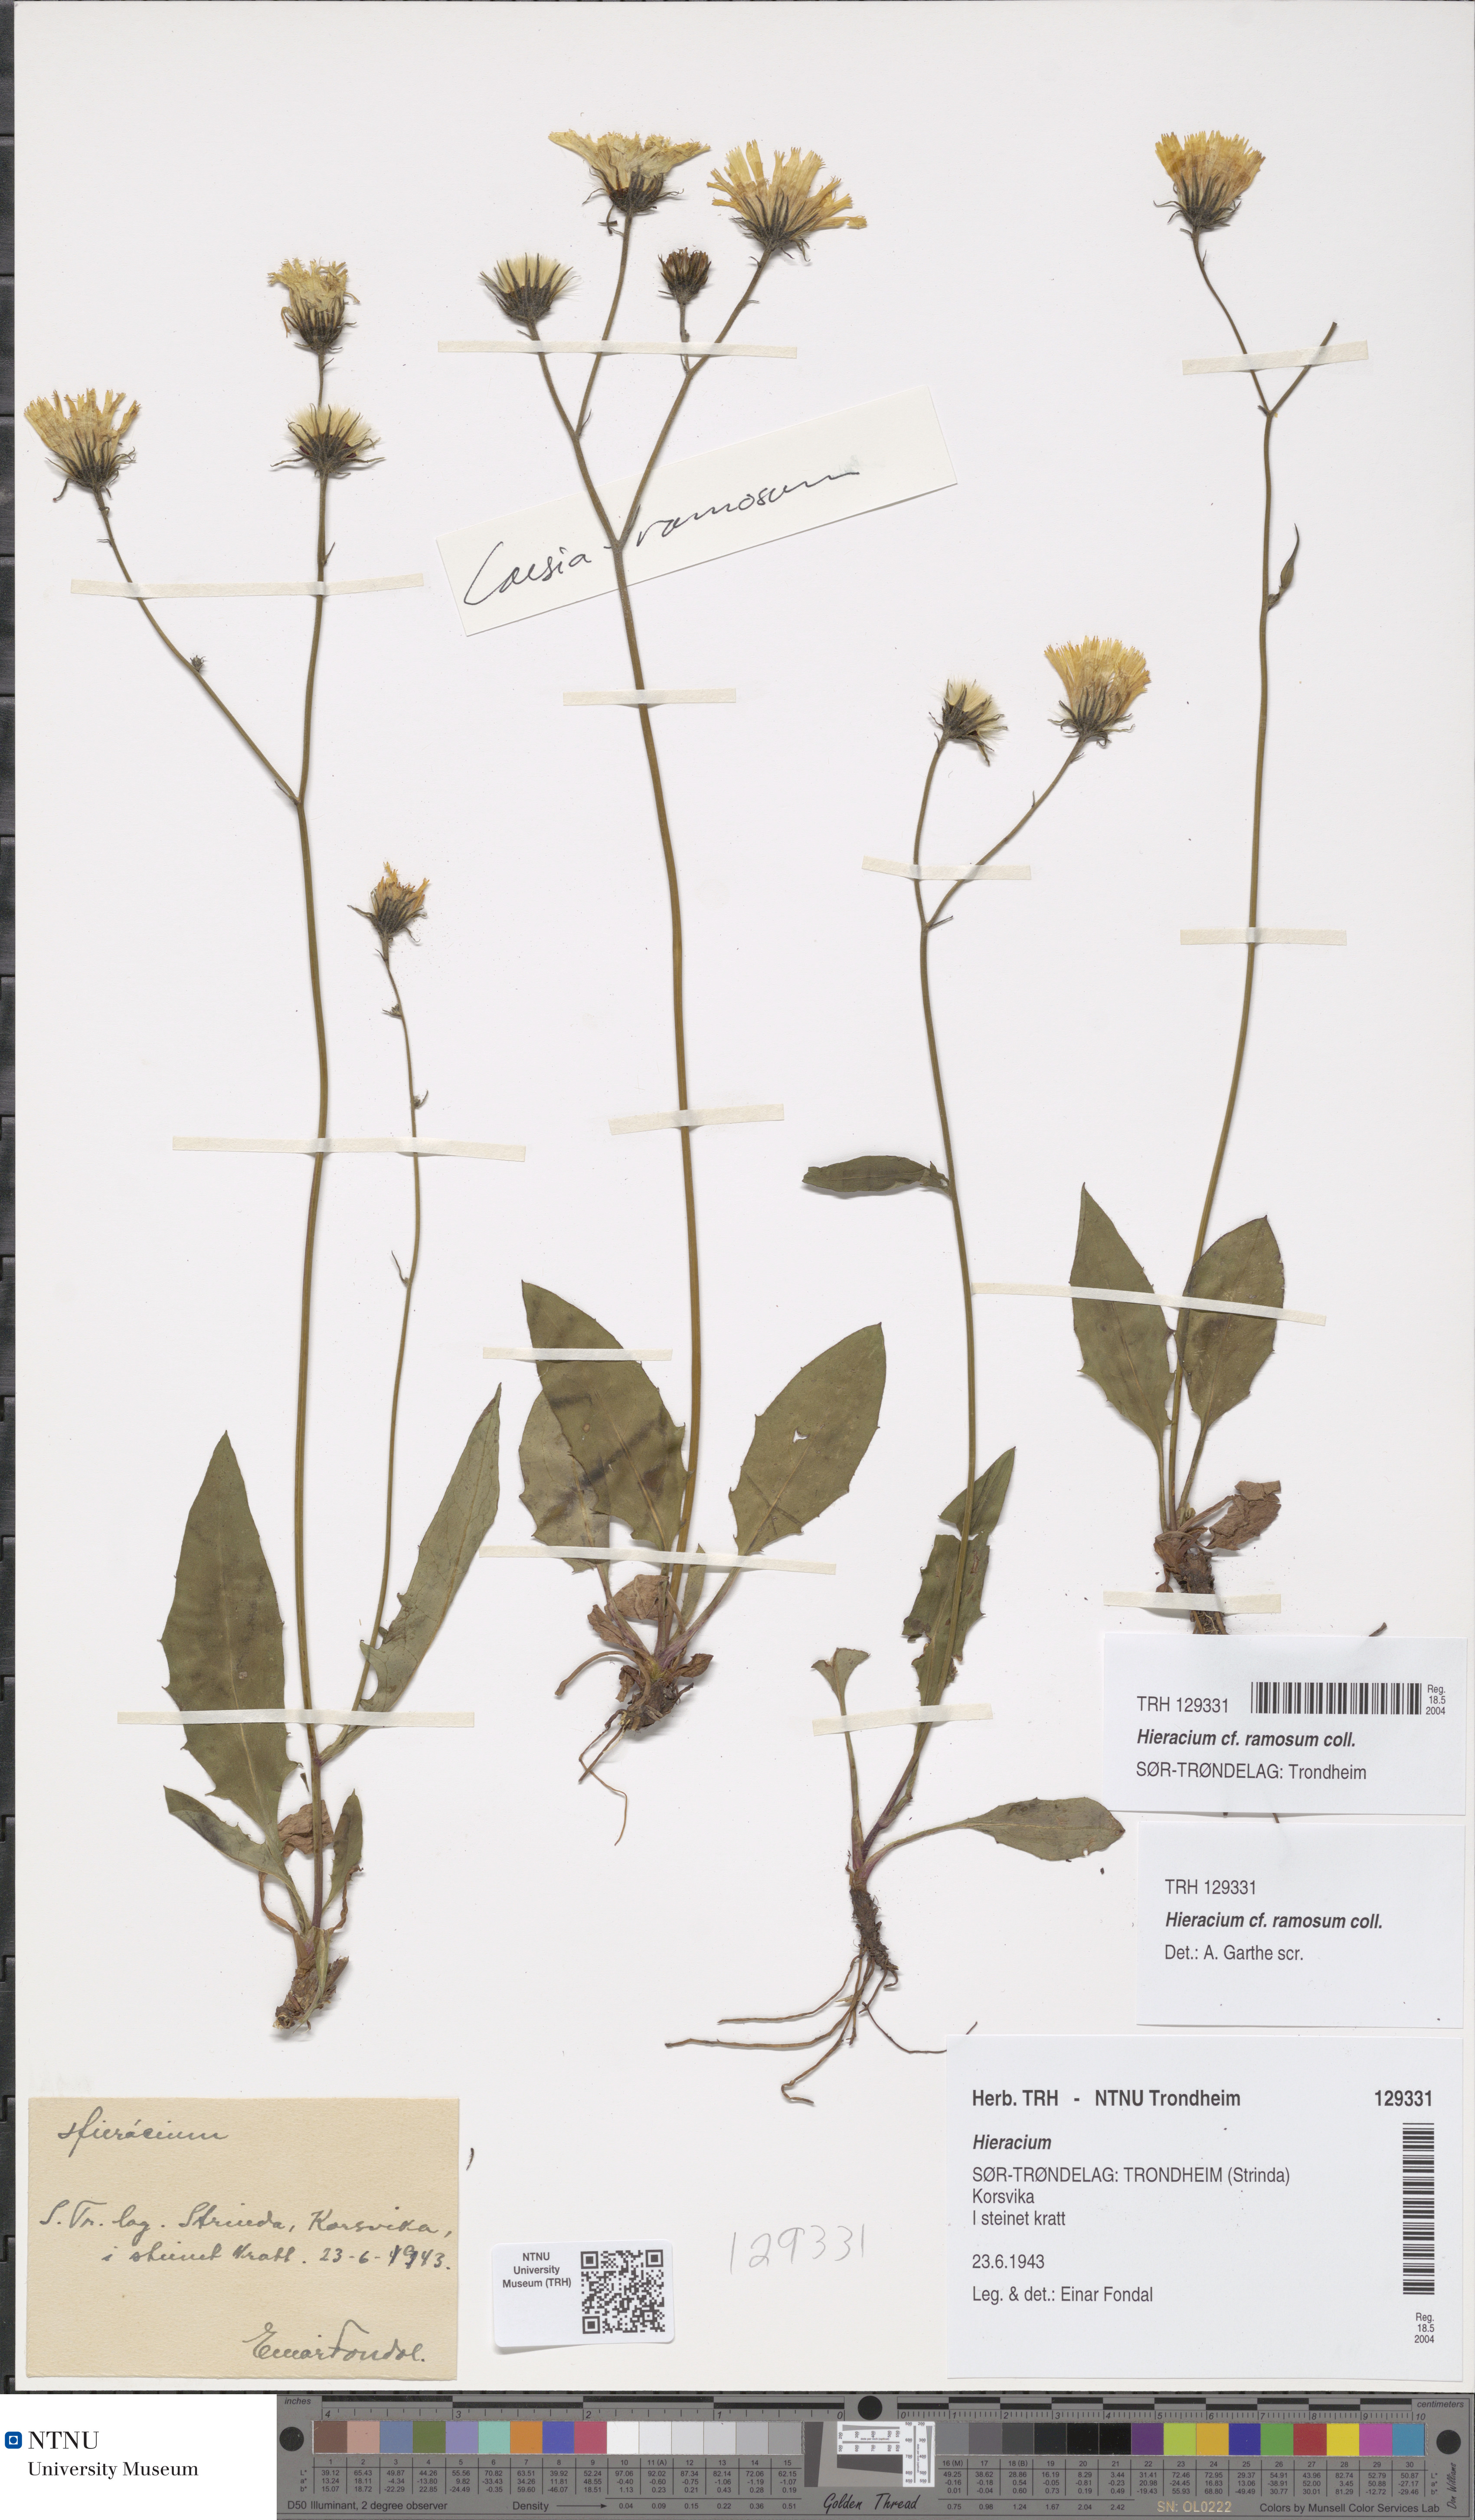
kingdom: Plantae
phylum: Tracheophyta
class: Magnoliopsida
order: Asterales
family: Asteraceae
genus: Hieracium
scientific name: Hieracium ramosum
